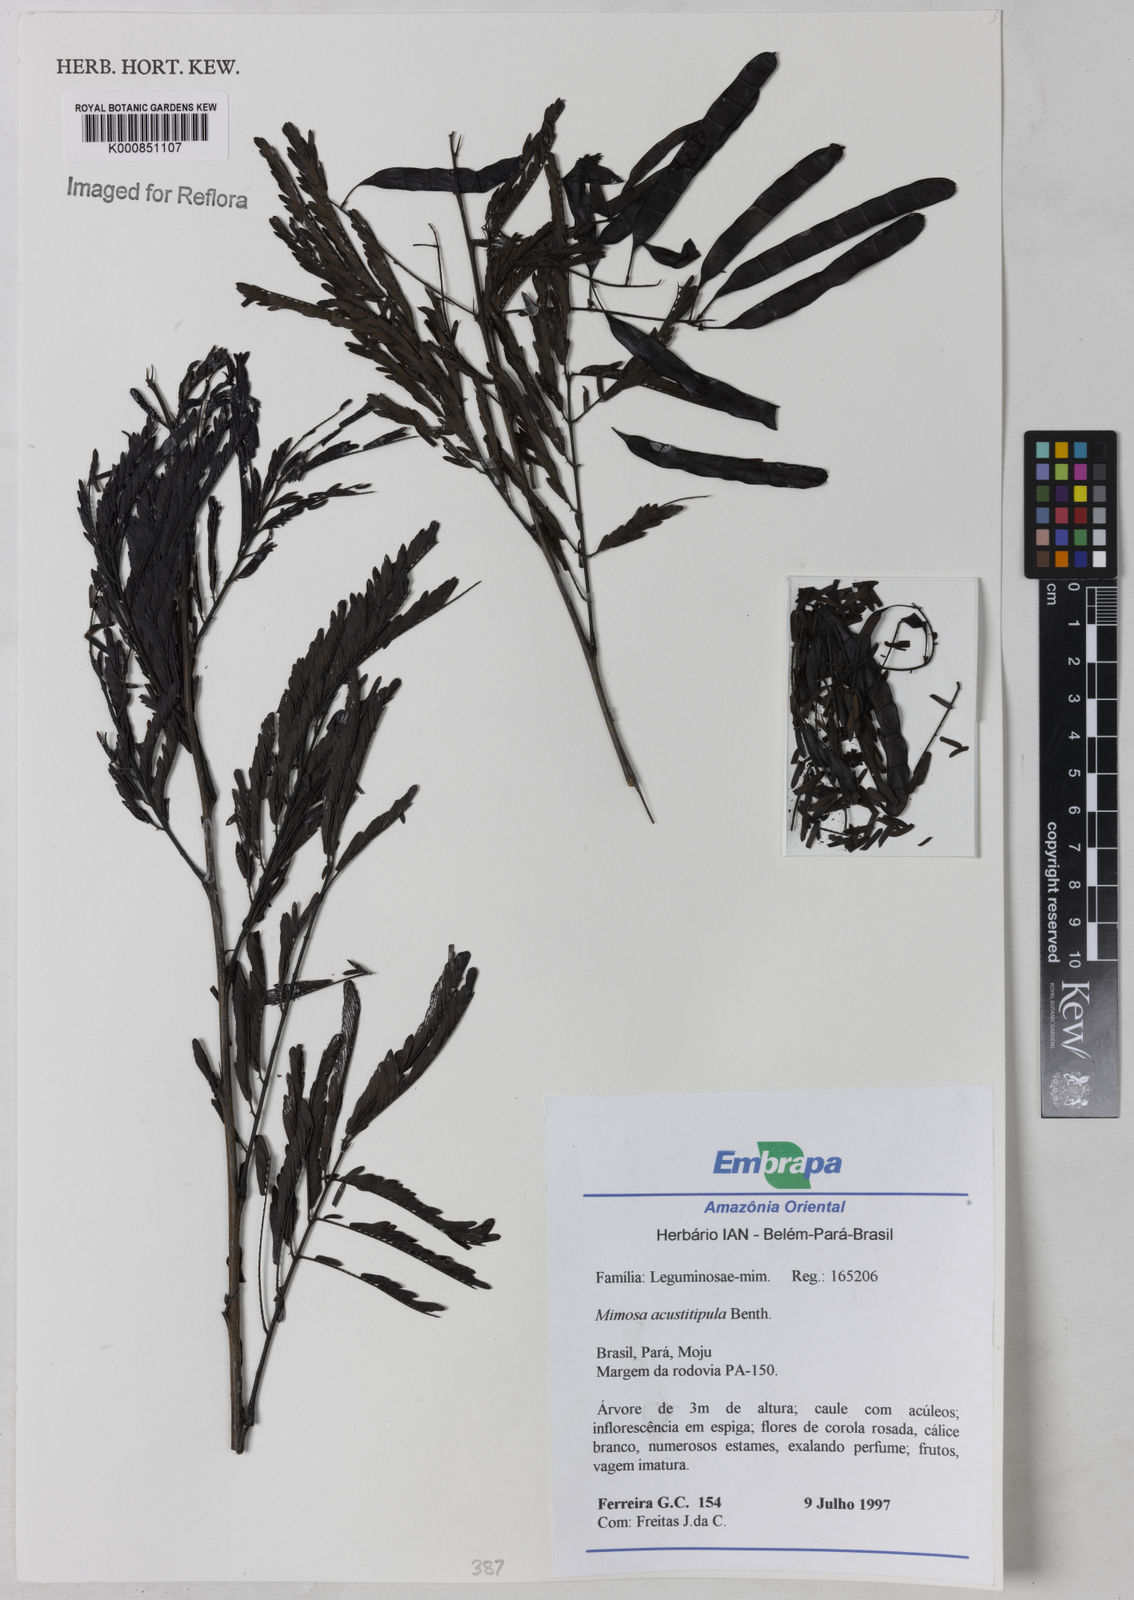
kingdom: Plantae
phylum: Tracheophyta
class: Magnoliopsida
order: Fabales
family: Fabaceae
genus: Mimosa
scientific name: Mimosa acutistipula
